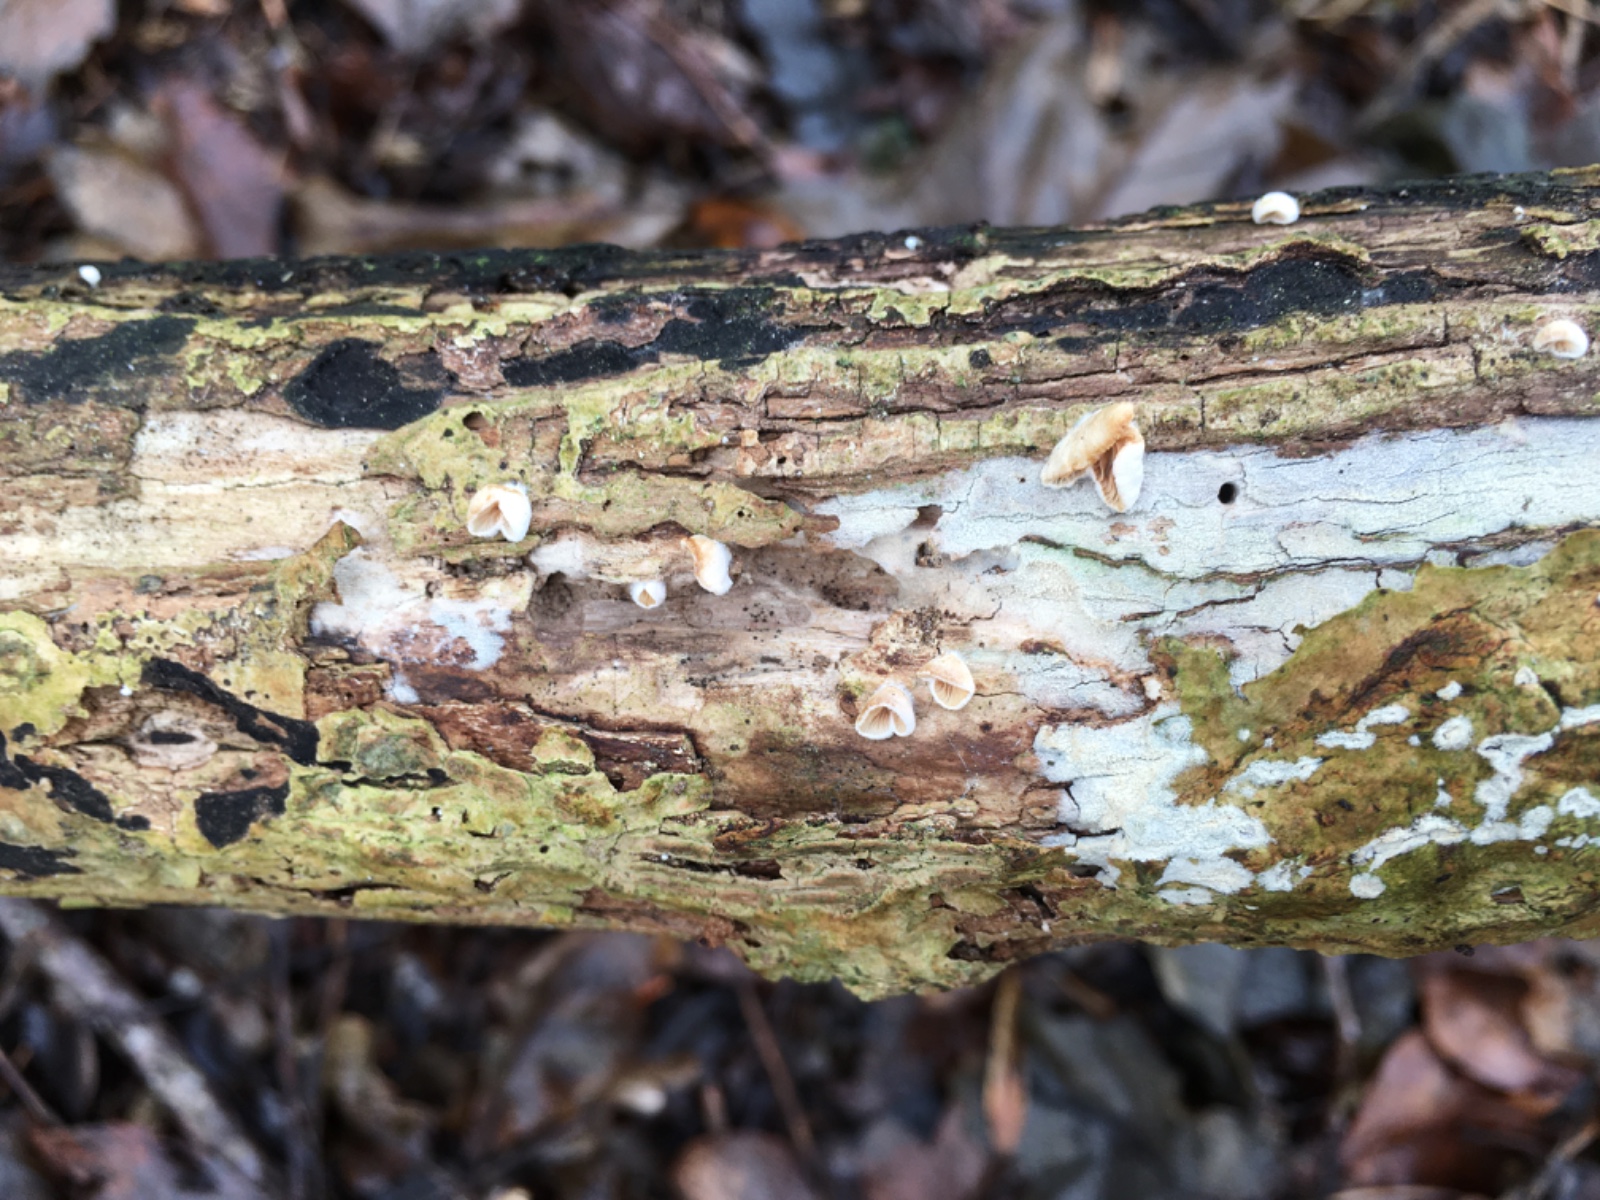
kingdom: Fungi
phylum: Basidiomycota
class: Agaricomycetes
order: Agaricales
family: Crepidotaceae
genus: Crepidotus
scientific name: Crepidotus cesatii
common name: almindelig muslingesvamp
